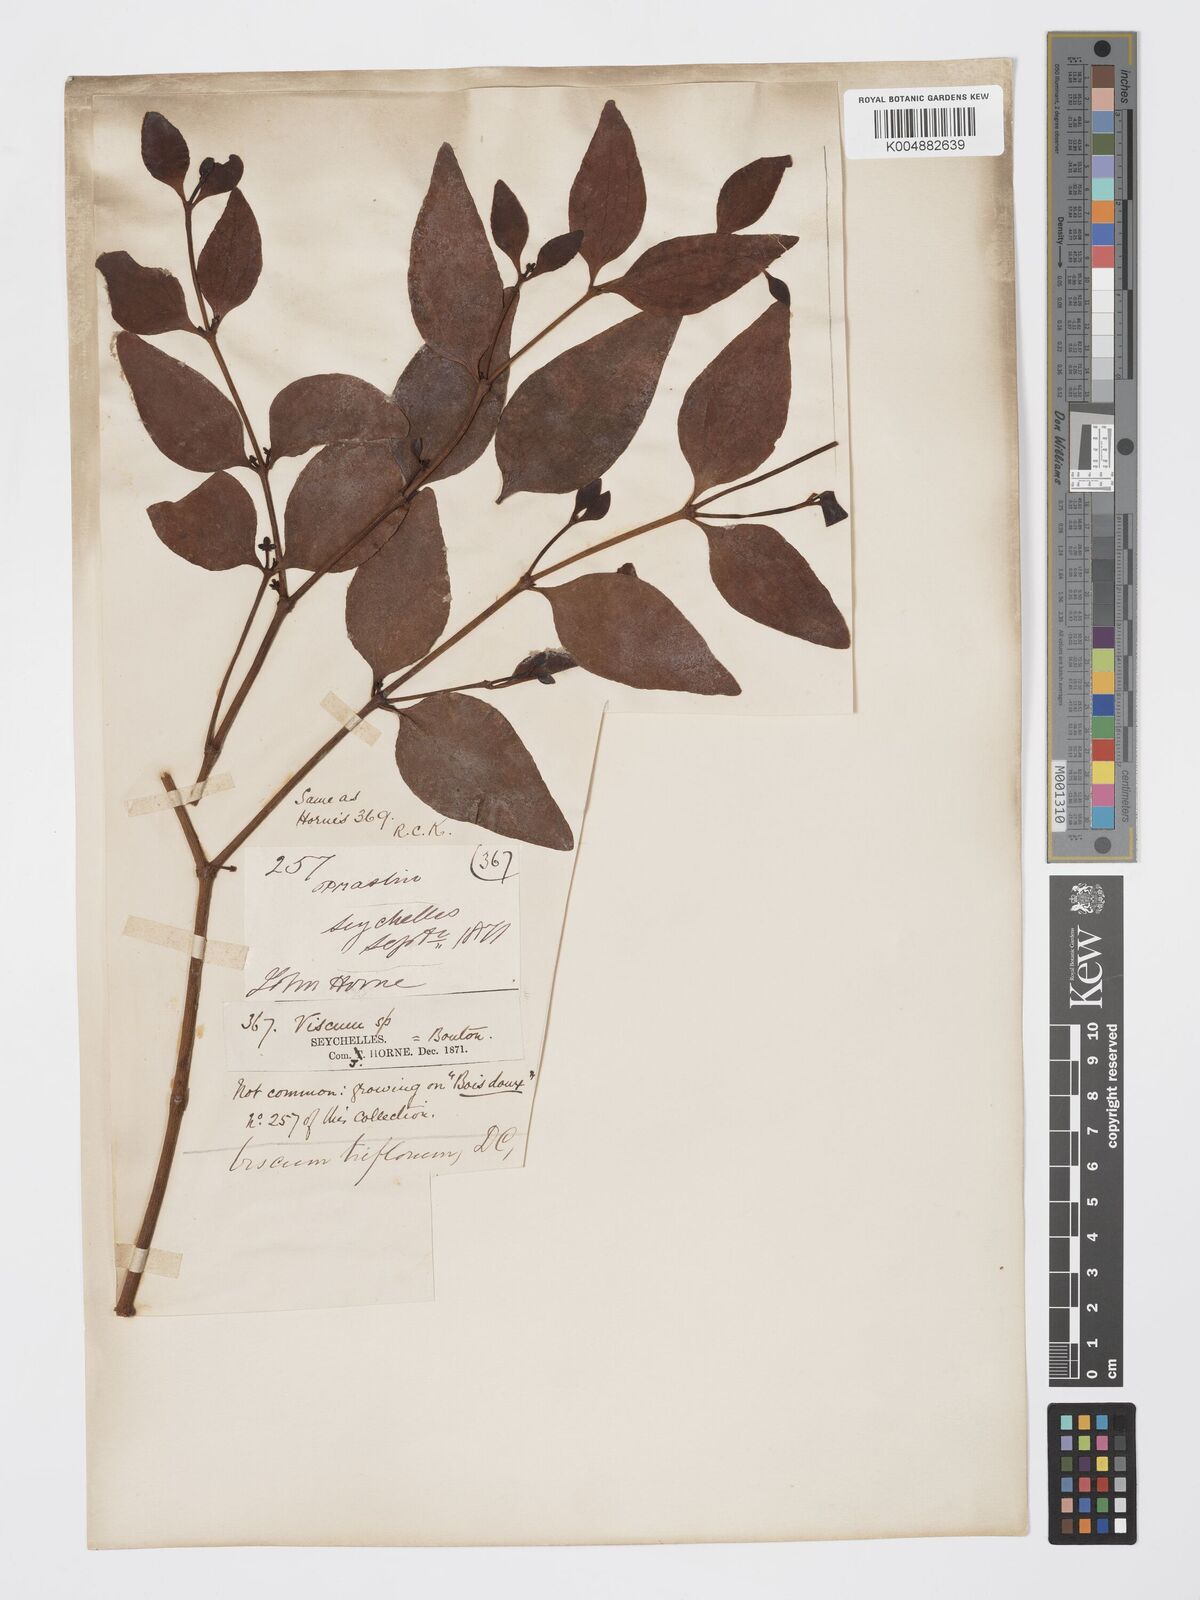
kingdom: Plantae
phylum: Tracheophyta
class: Magnoliopsida
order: Santalales
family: Viscaceae
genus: Viscum
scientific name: Viscum triflorum
